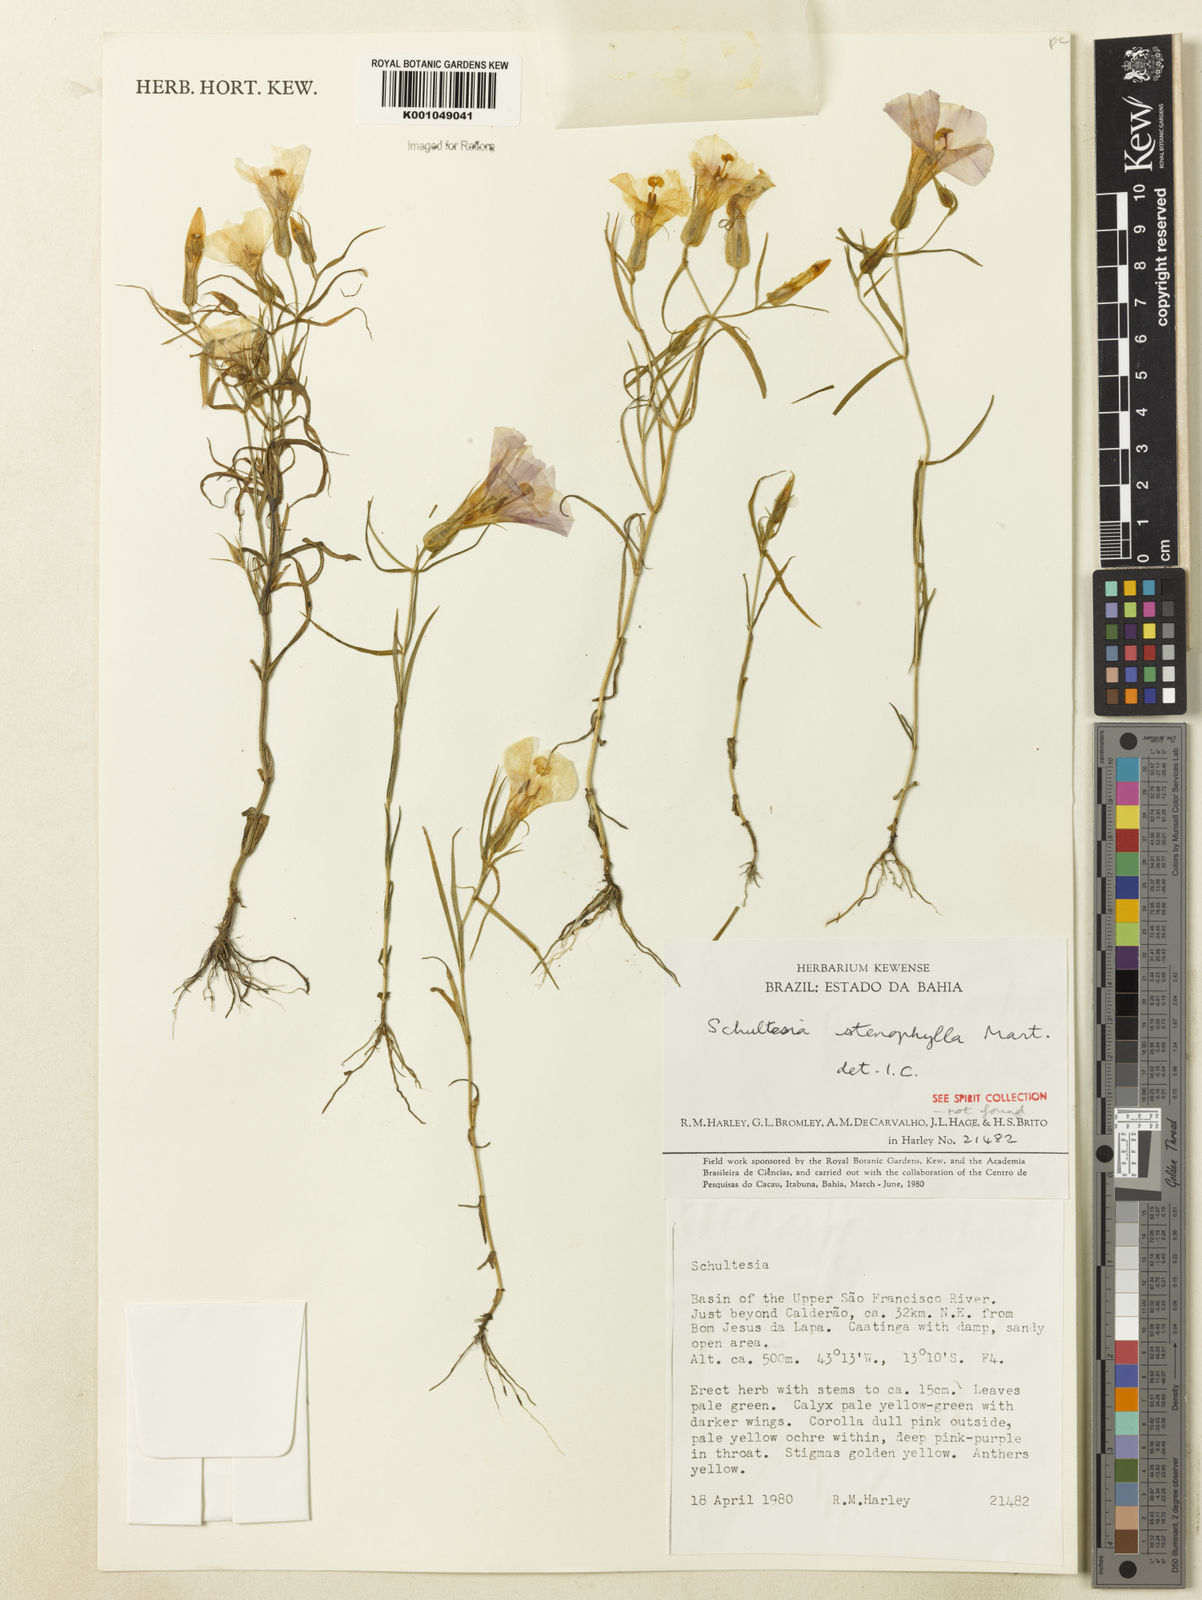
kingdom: Plantae
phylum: Tracheophyta
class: Magnoliopsida
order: Gentianales
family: Gentianaceae
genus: Schultesia
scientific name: Schultesia guianensis
